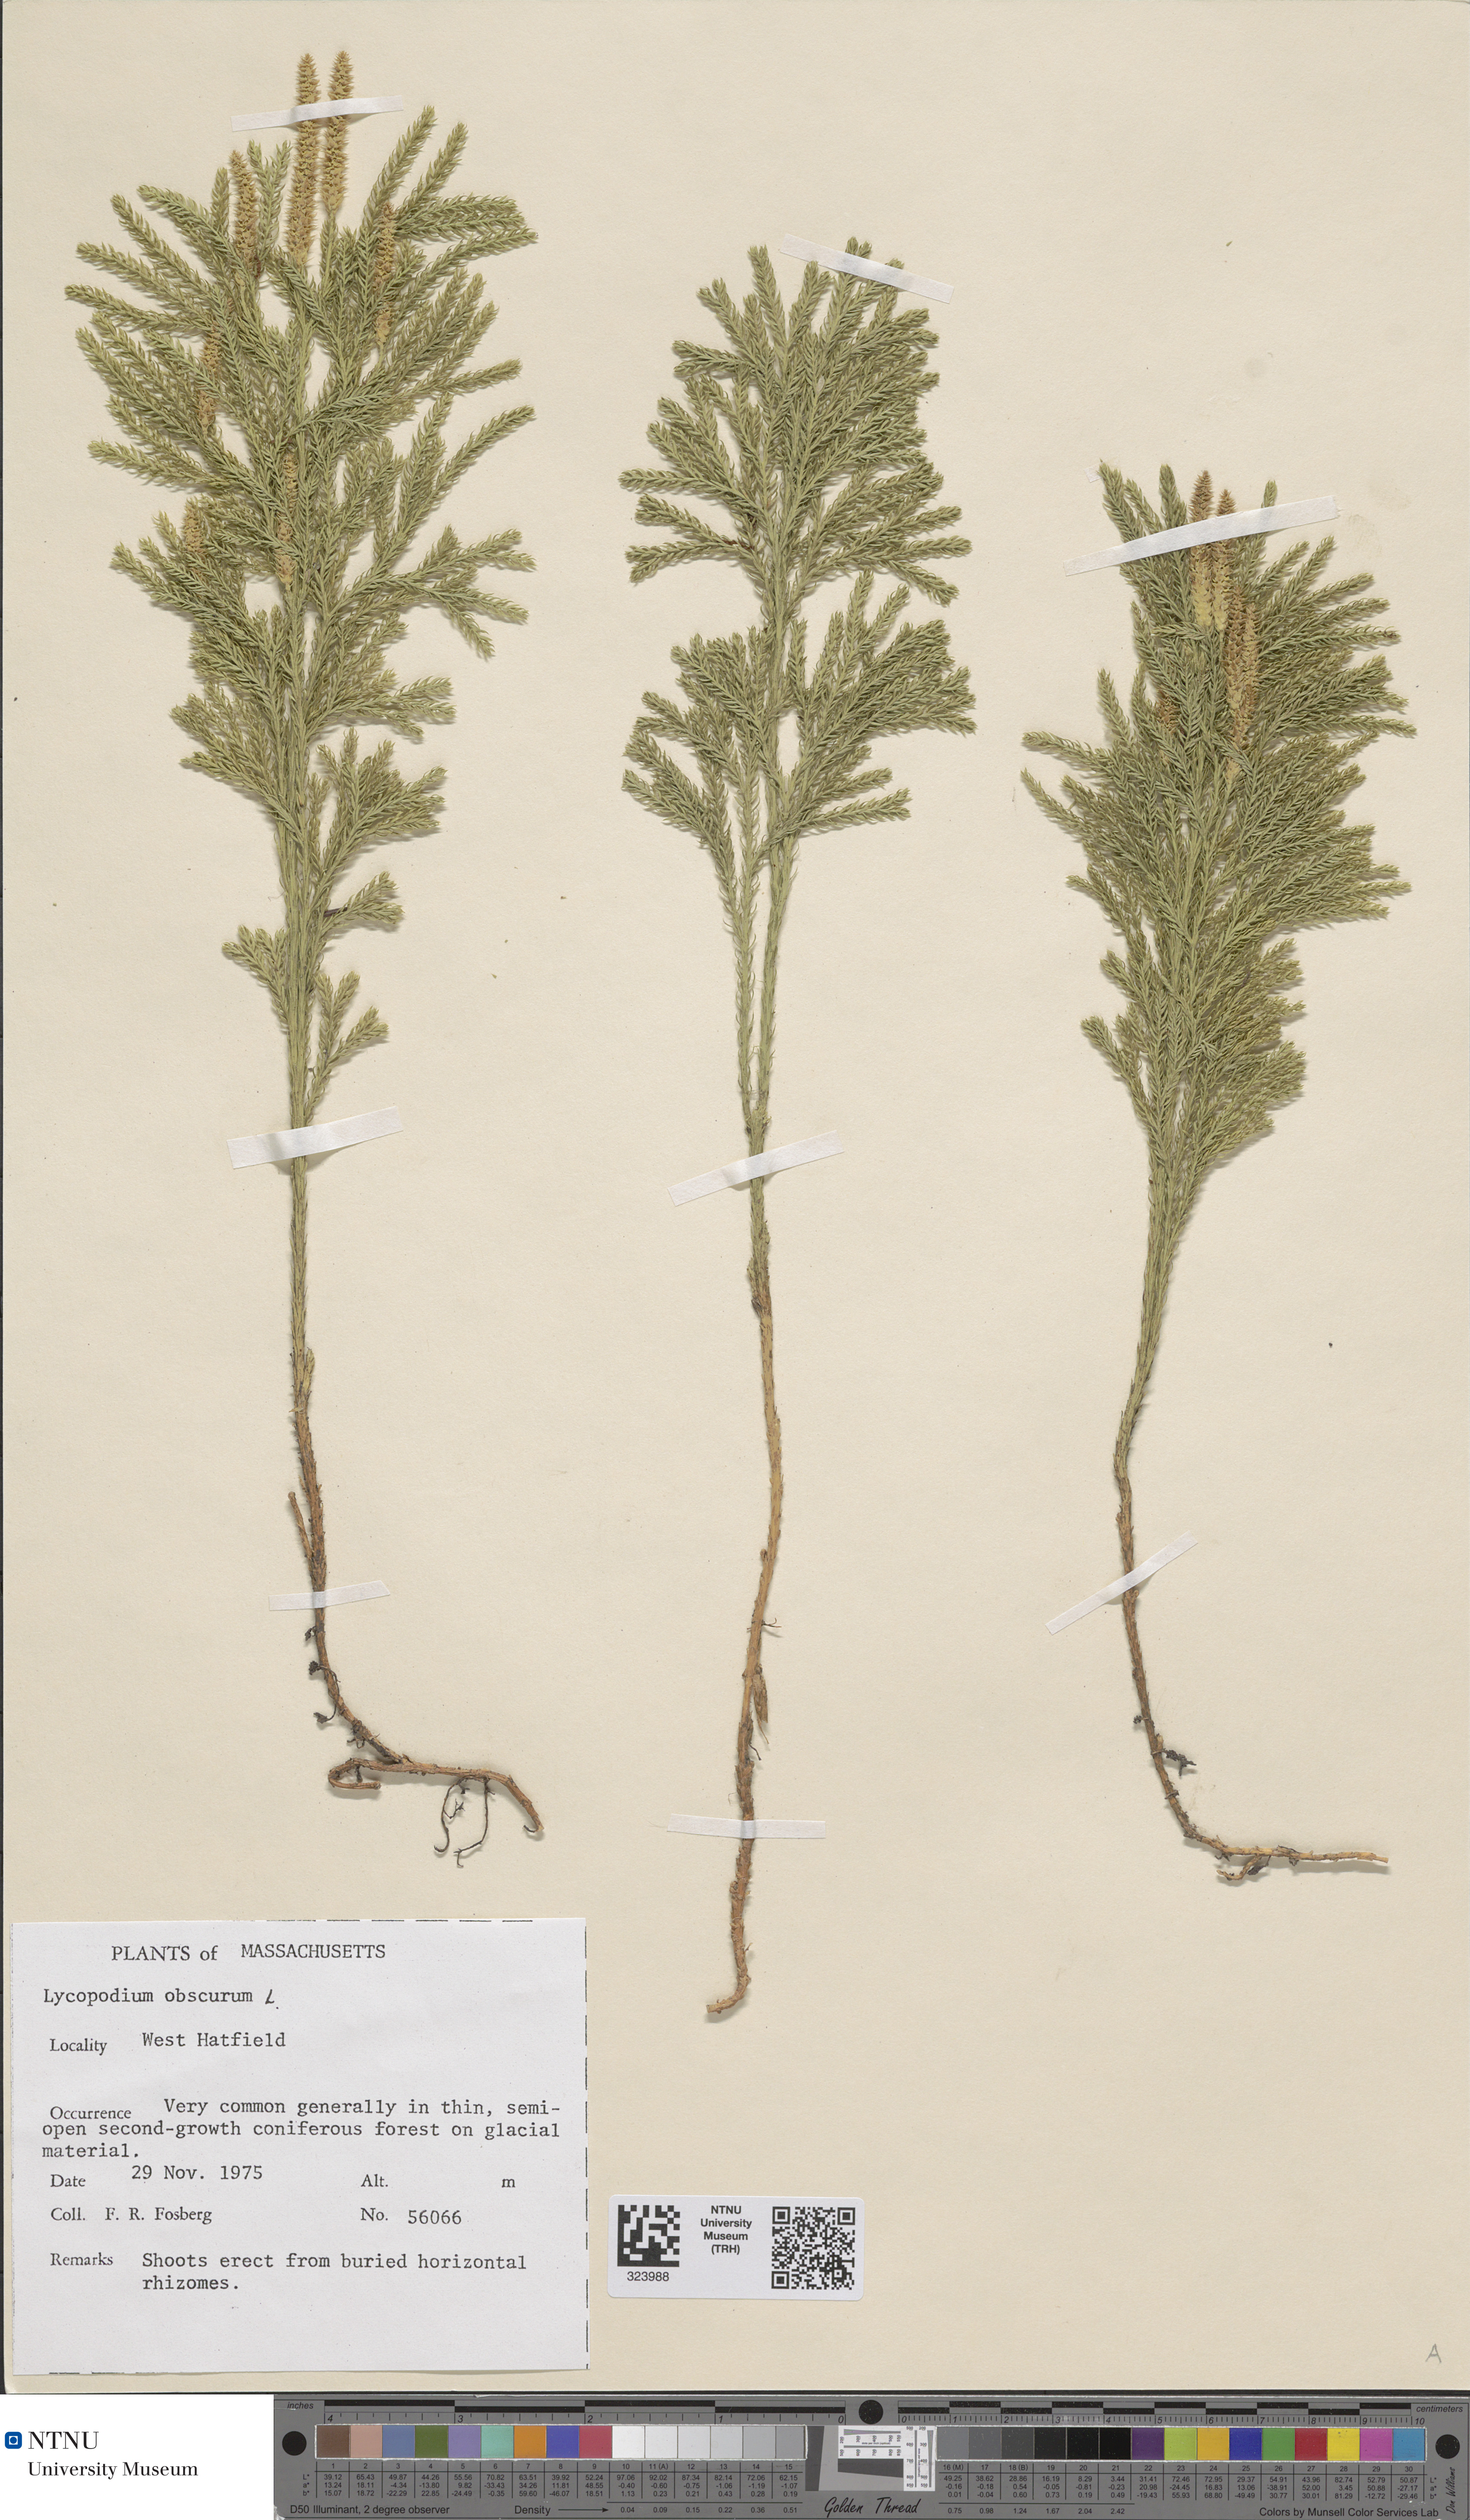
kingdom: Plantae
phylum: Tracheophyta
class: Lycopodiopsida
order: Lycopodiales
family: Lycopodiaceae
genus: Dendrolycopodium
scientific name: Dendrolycopodium obscurum
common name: Common ground-pine
